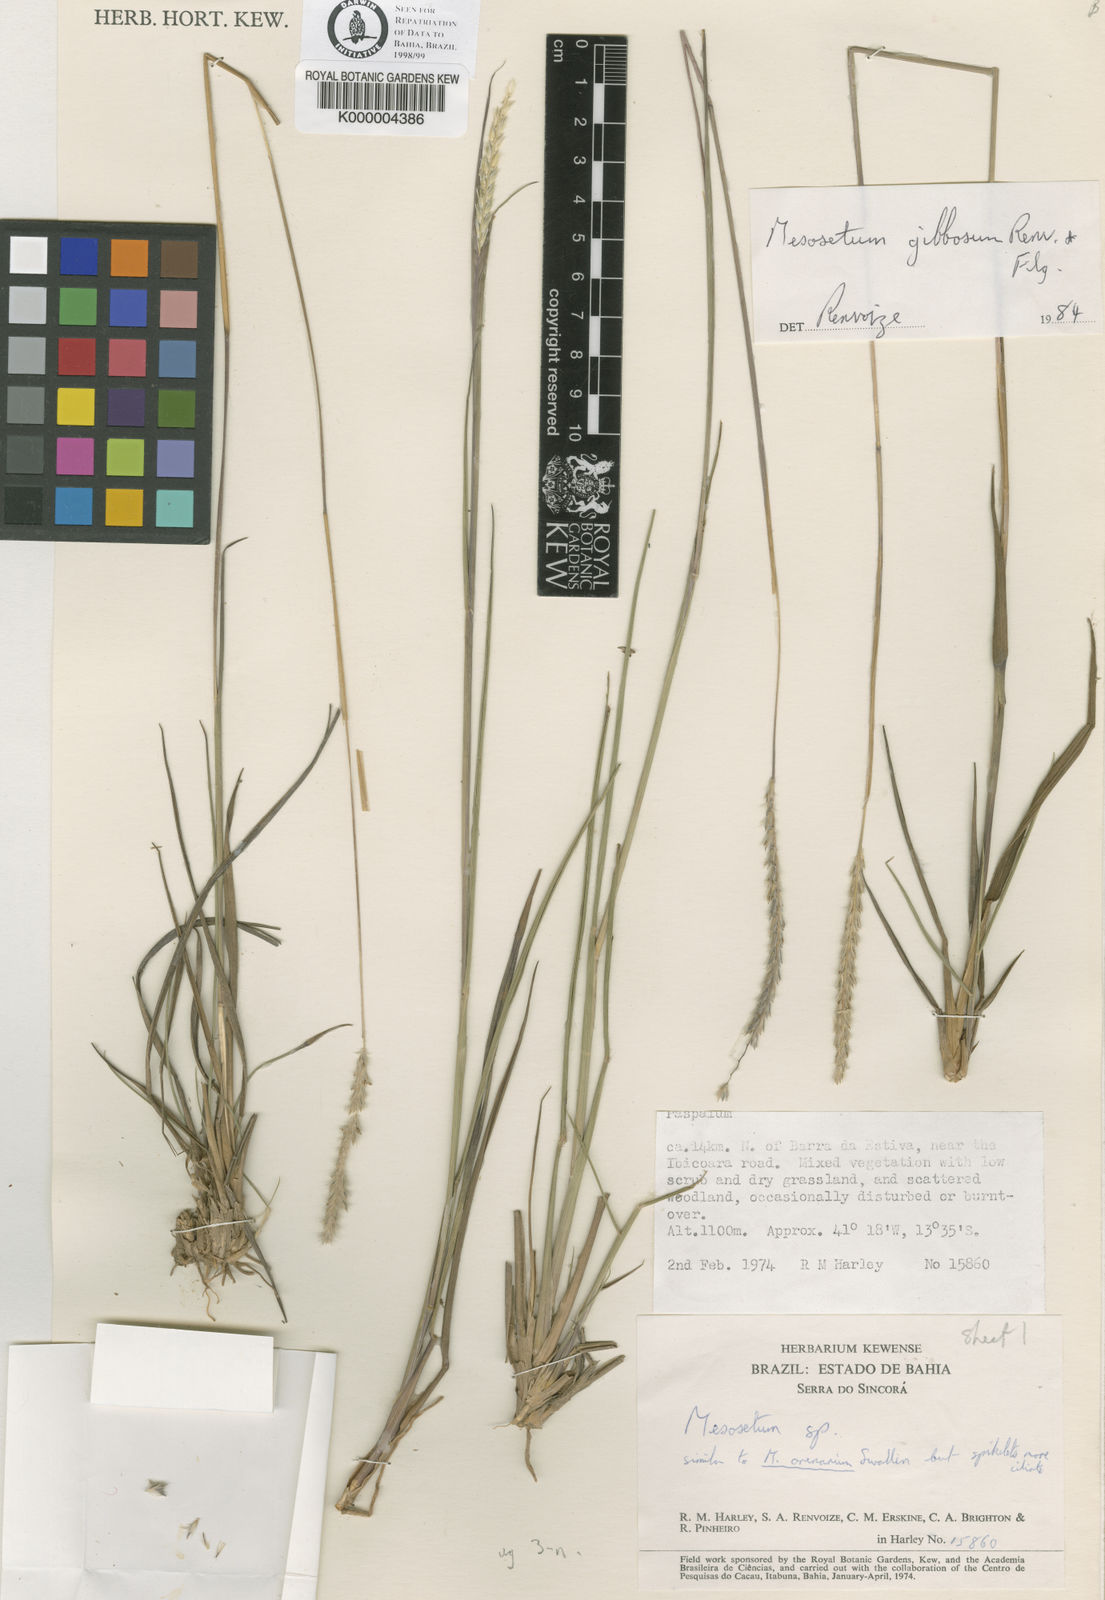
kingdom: Plantae
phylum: Tracheophyta
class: Liliopsida
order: Poales
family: Poaceae
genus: Mesosetum
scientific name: Mesosetum gibbosum
